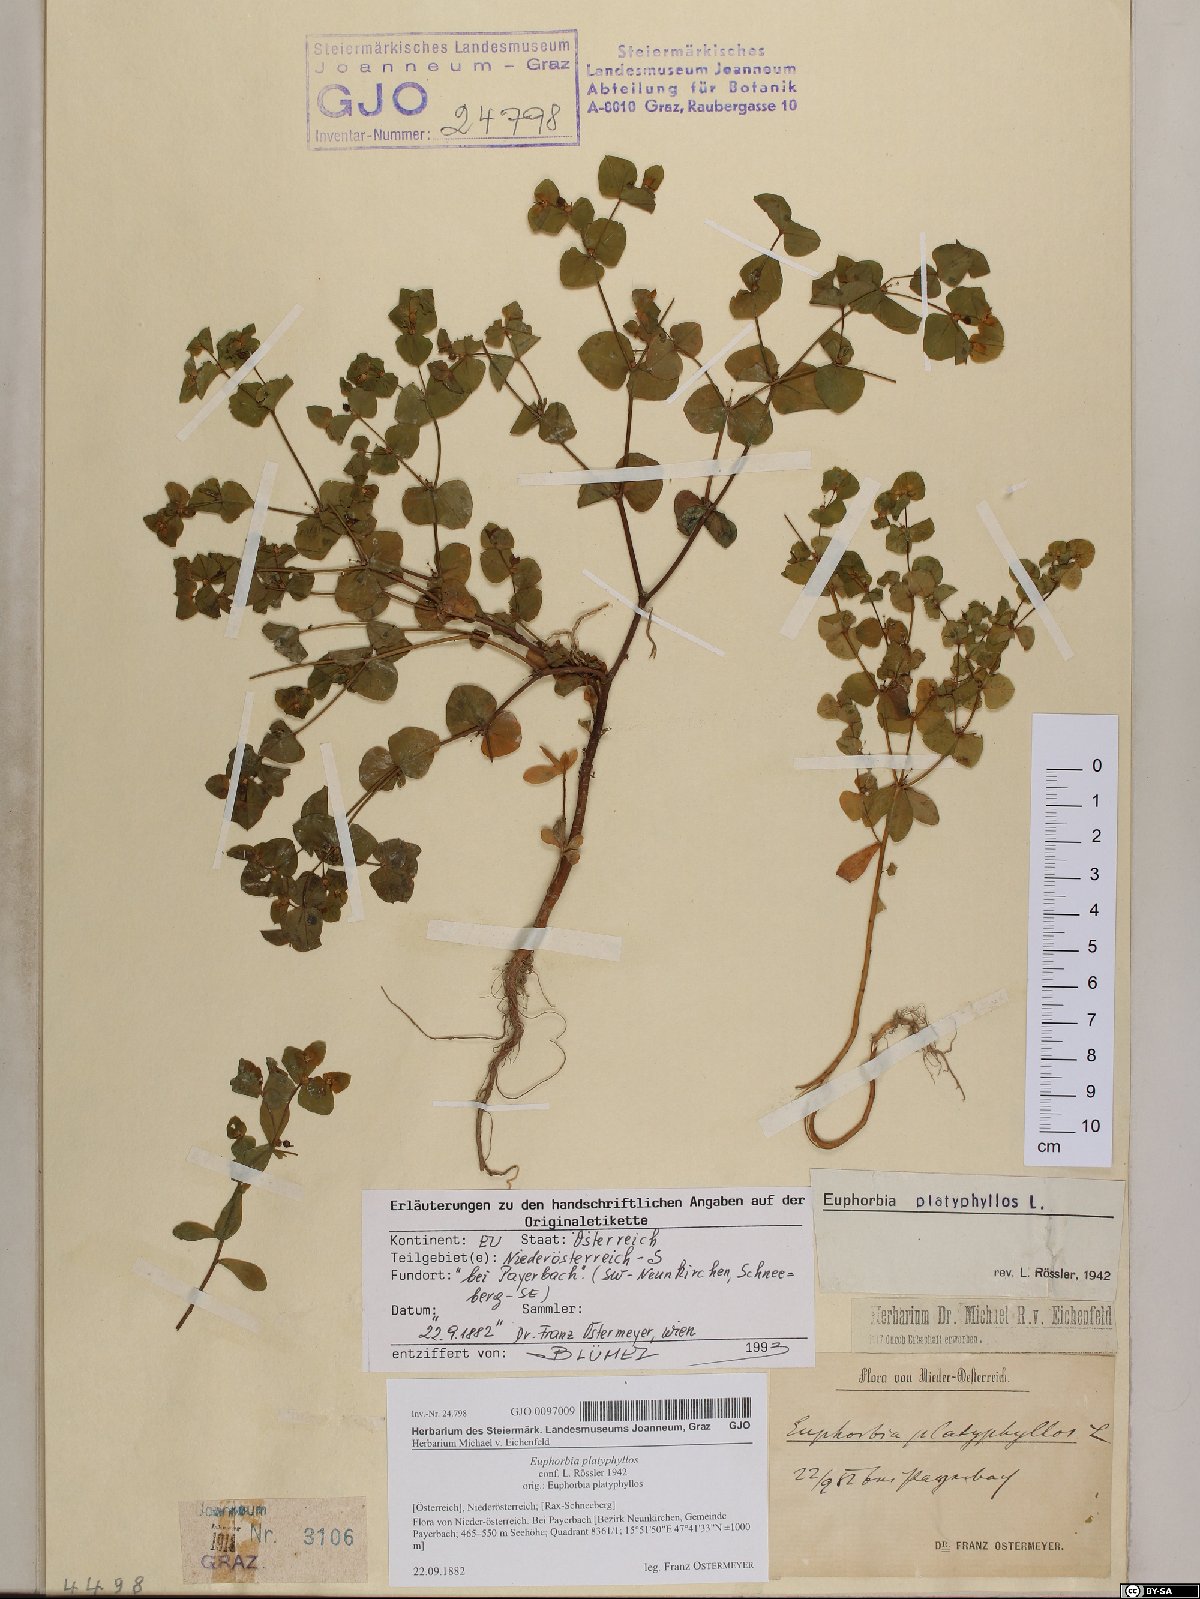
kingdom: Plantae
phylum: Tracheophyta
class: Magnoliopsida
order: Malpighiales
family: Euphorbiaceae
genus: Euphorbia
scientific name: Euphorbia platyphyllos
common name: Broad-leaved spurge
